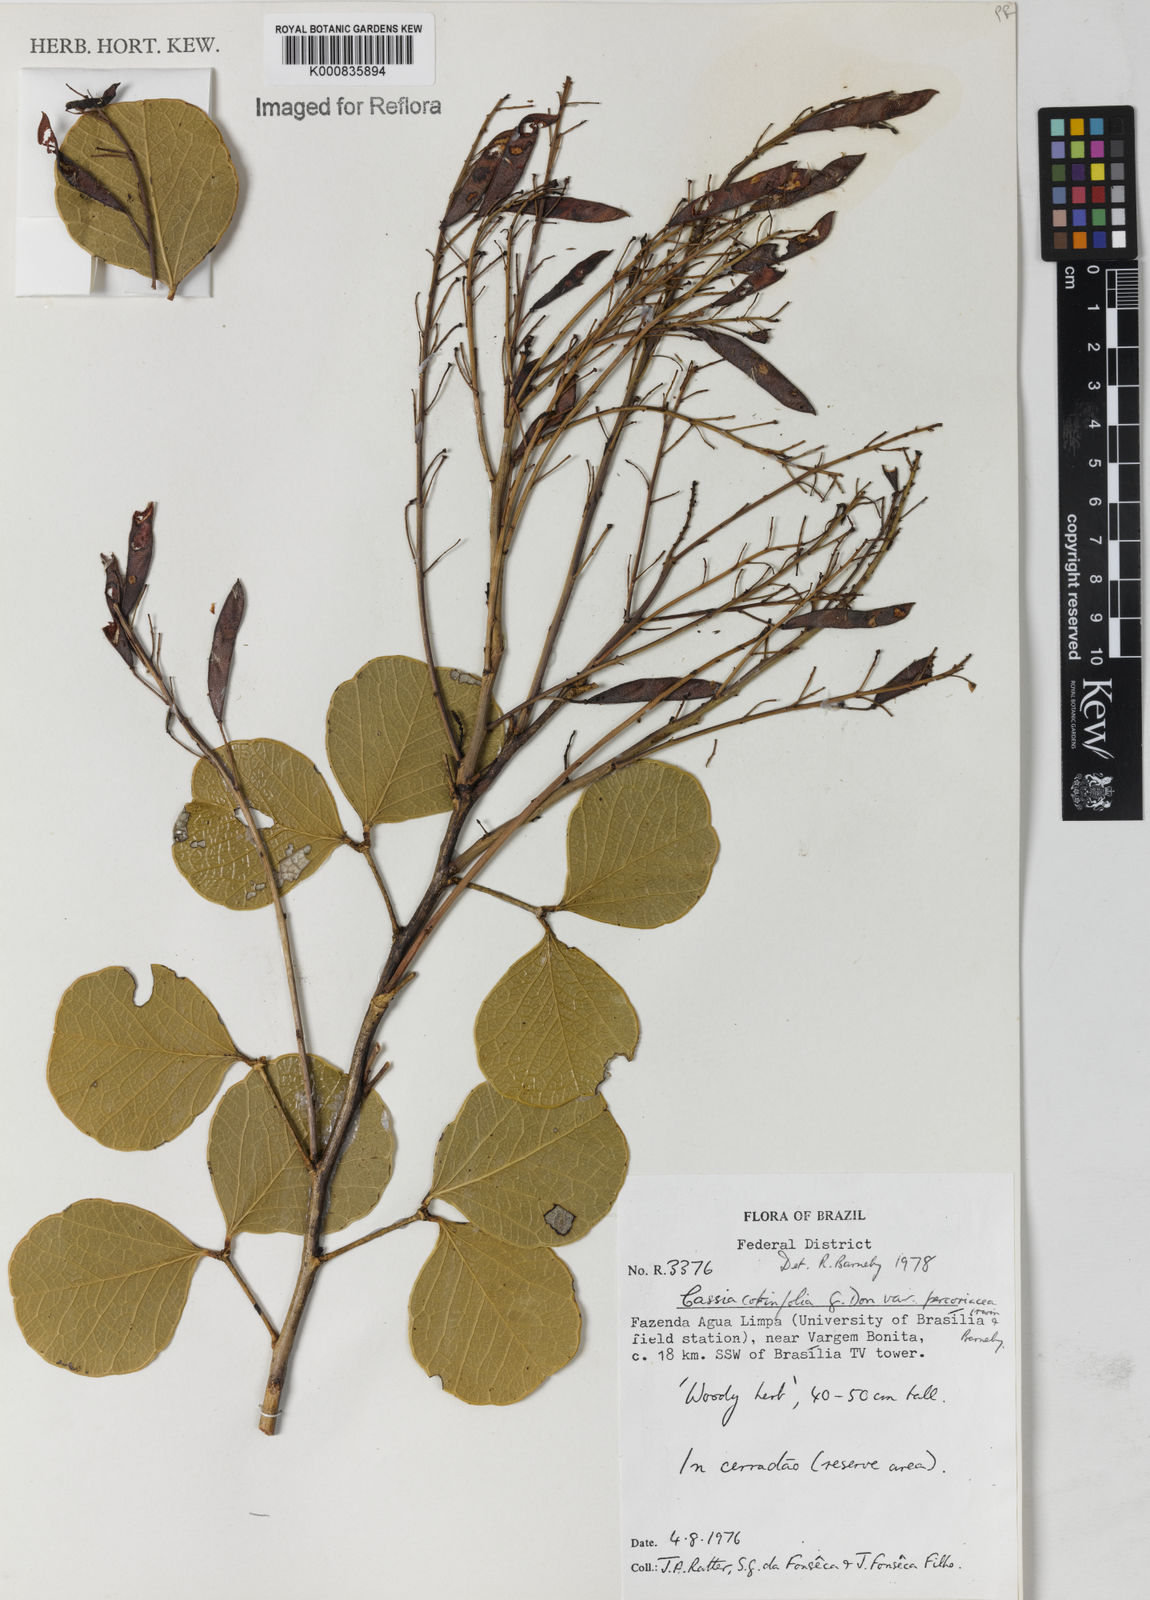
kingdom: Plantae
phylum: Tracheophyta
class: Magnoliopsida
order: Fabales
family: Fabaceae
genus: Chamaecrista
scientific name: Chamaecrista cotinifolia
